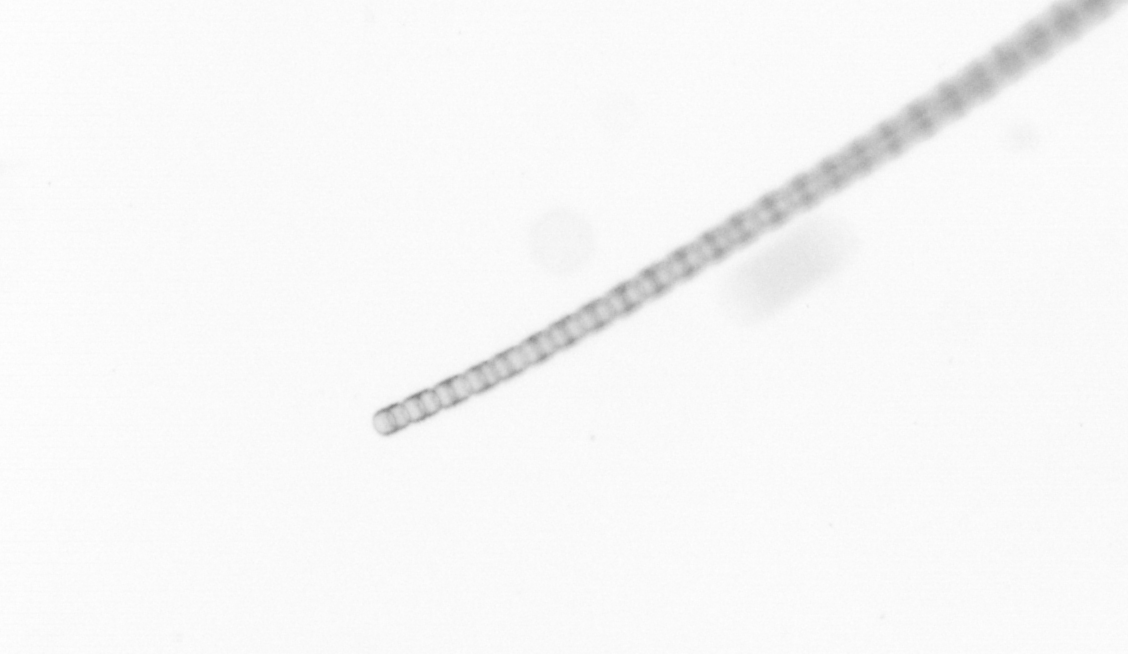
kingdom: Chromista
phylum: Ochrophyta
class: Bacillariophyceae
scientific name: Bacillariophyceae
